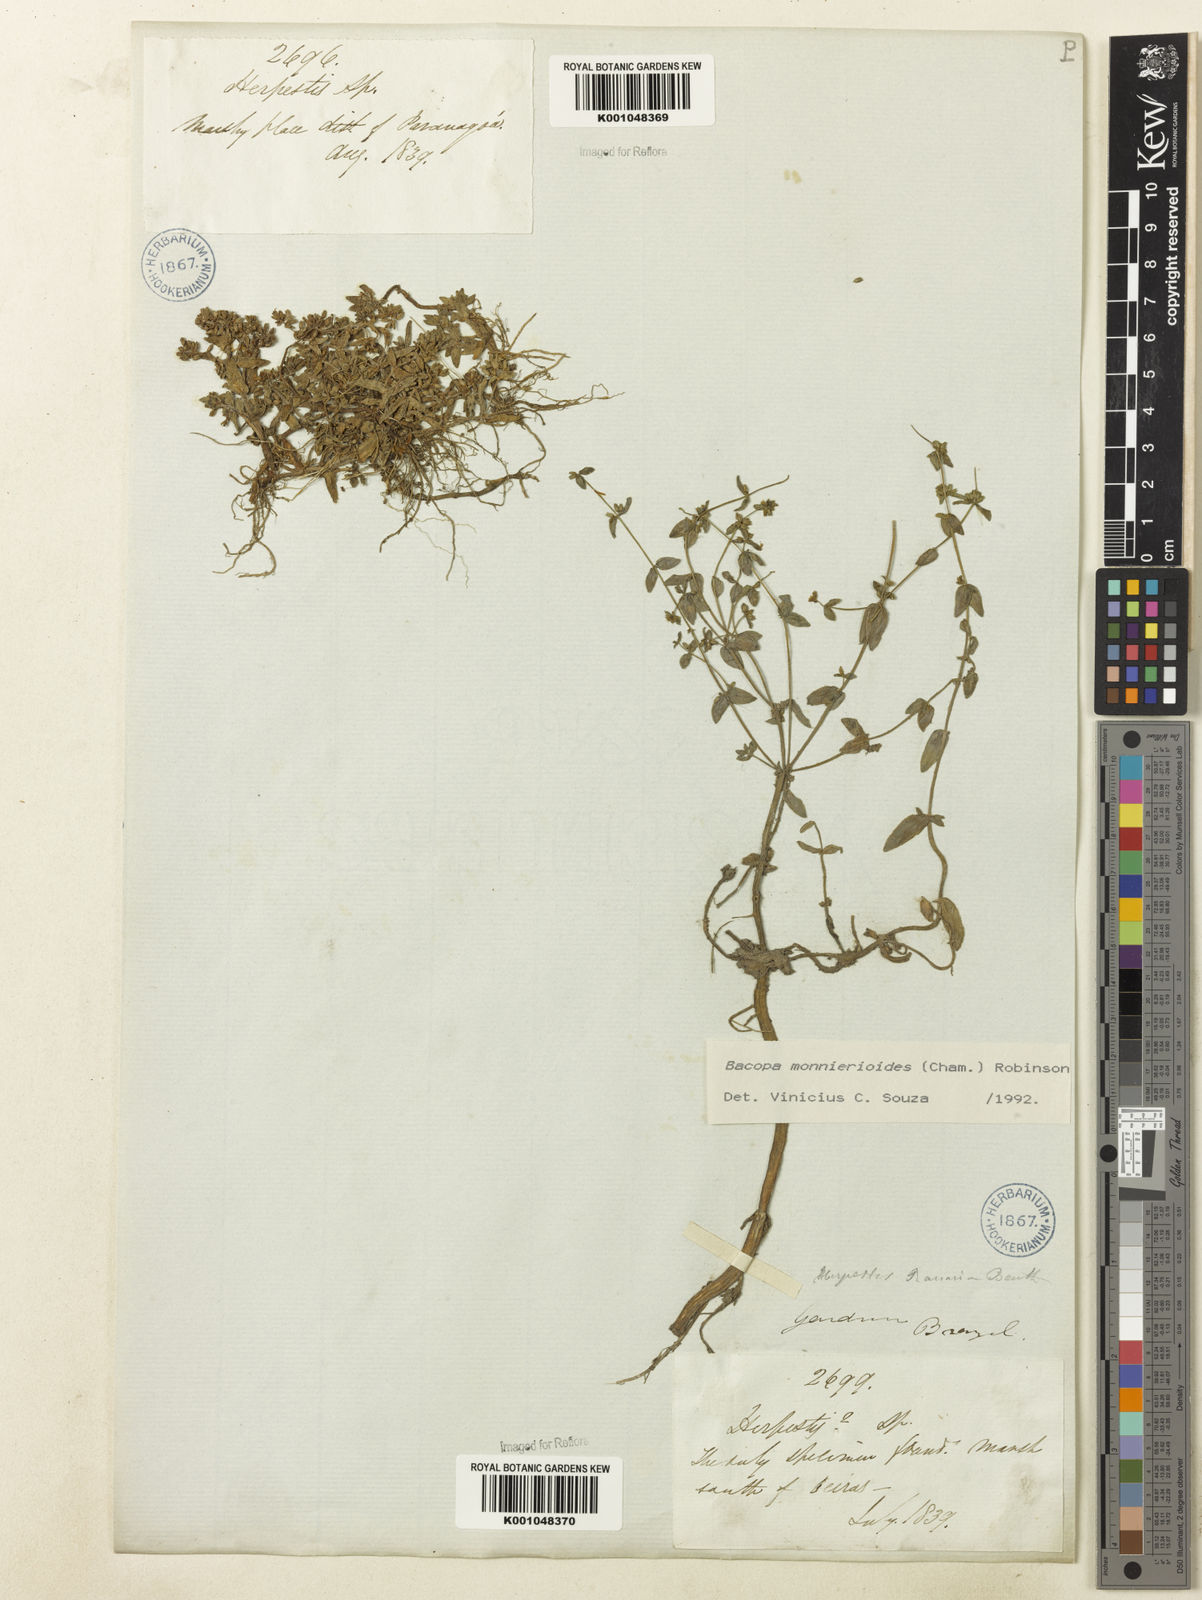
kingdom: Plantae
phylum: Tracheophyta
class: Magnoliopsida
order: Lamiales
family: Plantaginaceae
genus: Bacopa
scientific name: Bacopa monnierioides
